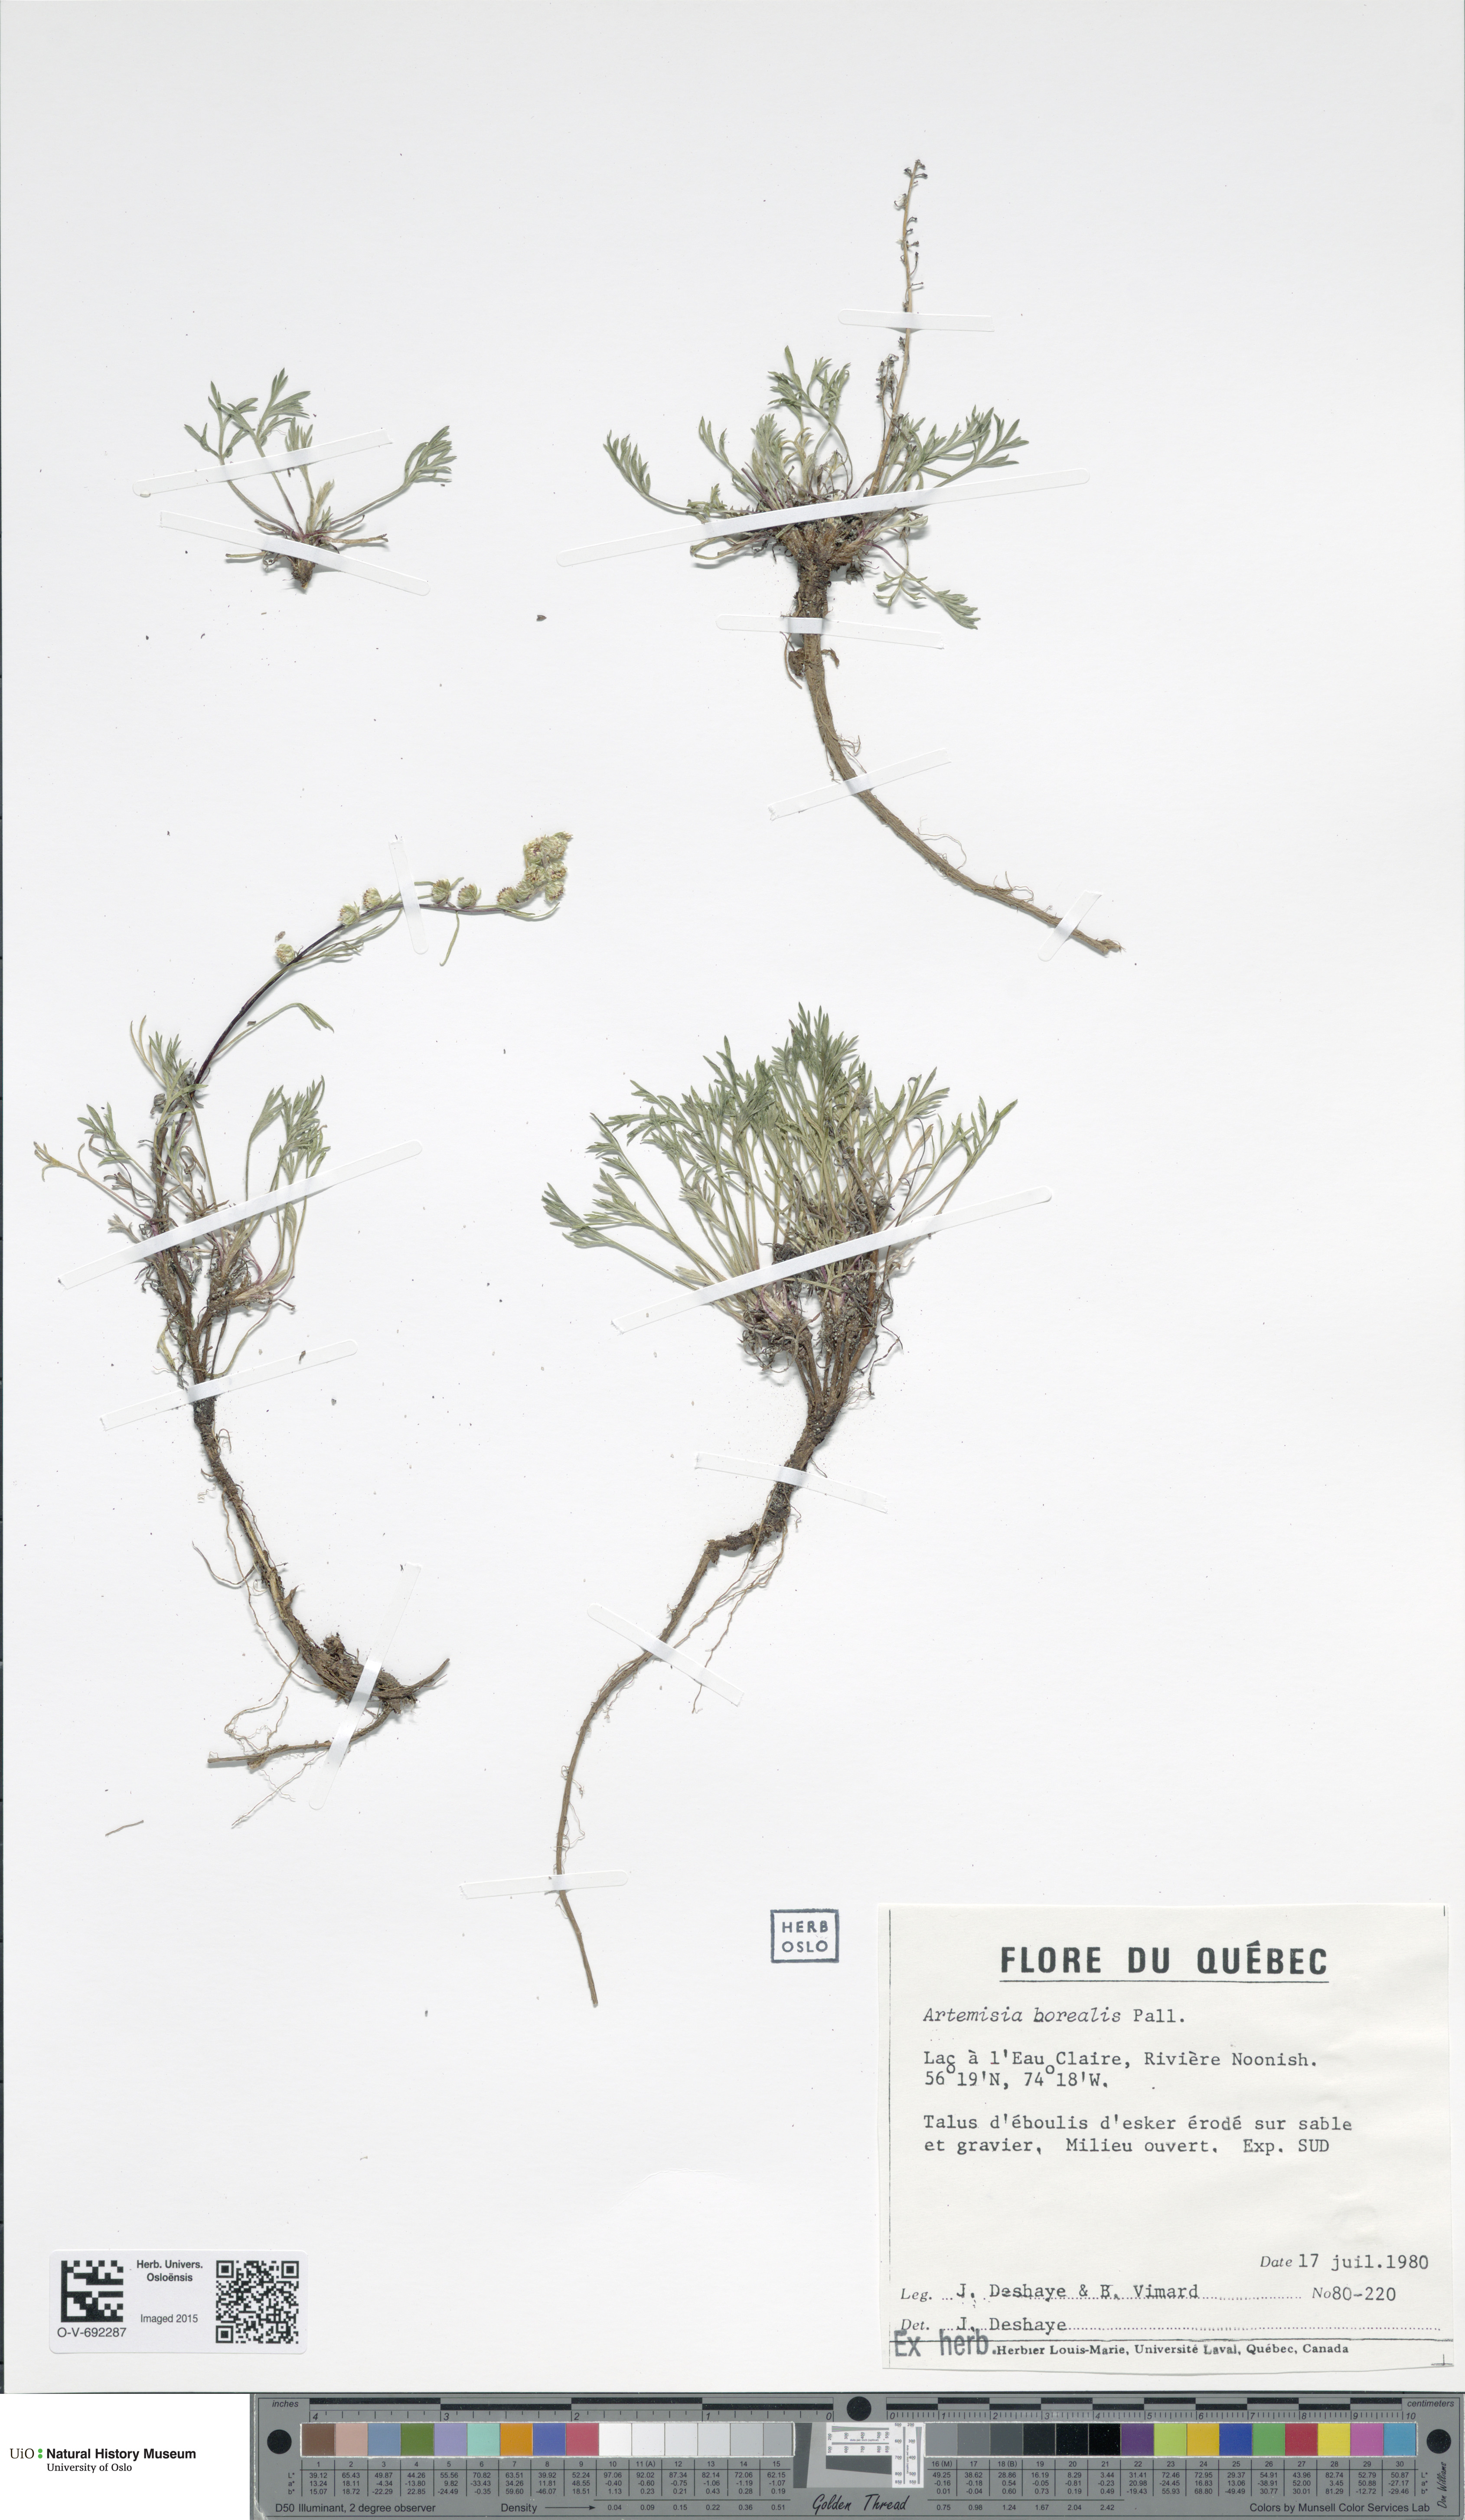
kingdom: Plantae
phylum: Tracheophyta
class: Magnoliopsida
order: Asterales
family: Asteraceae
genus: Artemisia
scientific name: Artemisia borealis
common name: Boreal sage
